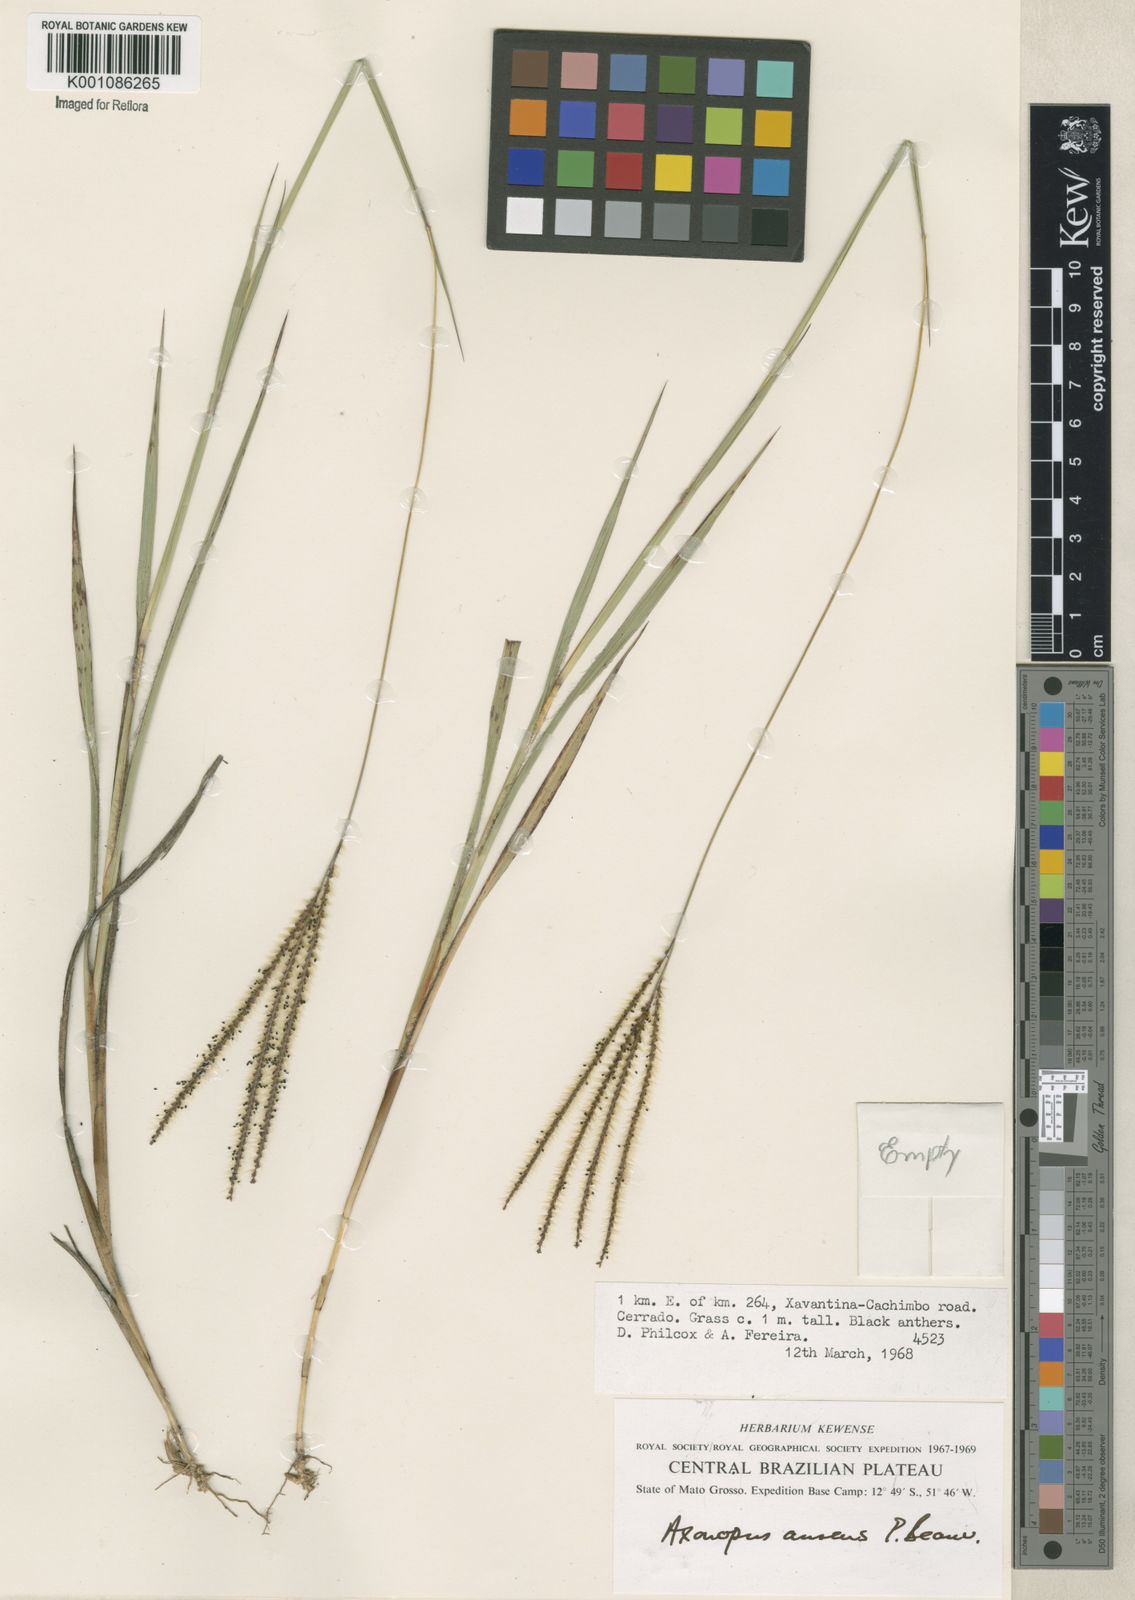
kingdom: Plantae
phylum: Tracheophyta
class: Liliopsida
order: Poales
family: Poaceae
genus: Axonopus
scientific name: Axonopus aureus
